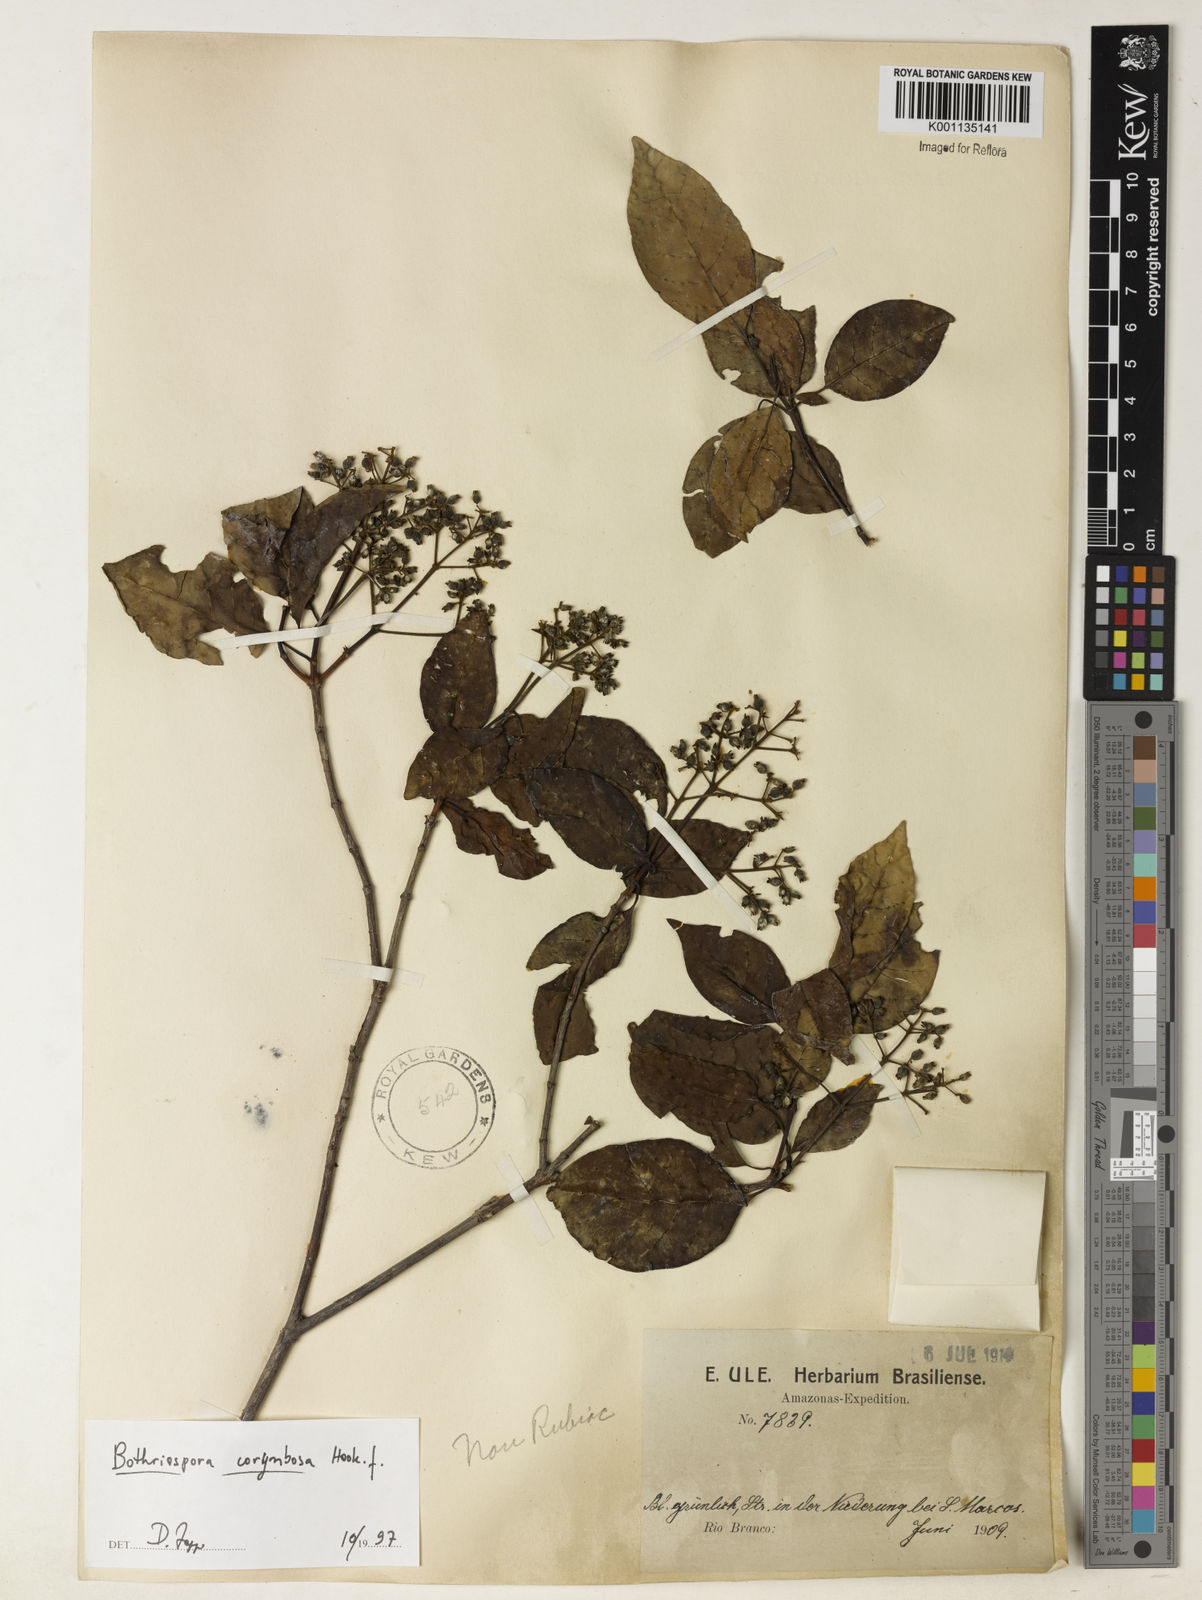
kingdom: Plantae
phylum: Tracheophyta
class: Magnoliopsida
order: Gentianales
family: Rubiaceae
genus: Bothriospora
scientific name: Bothriospora corymbosa
